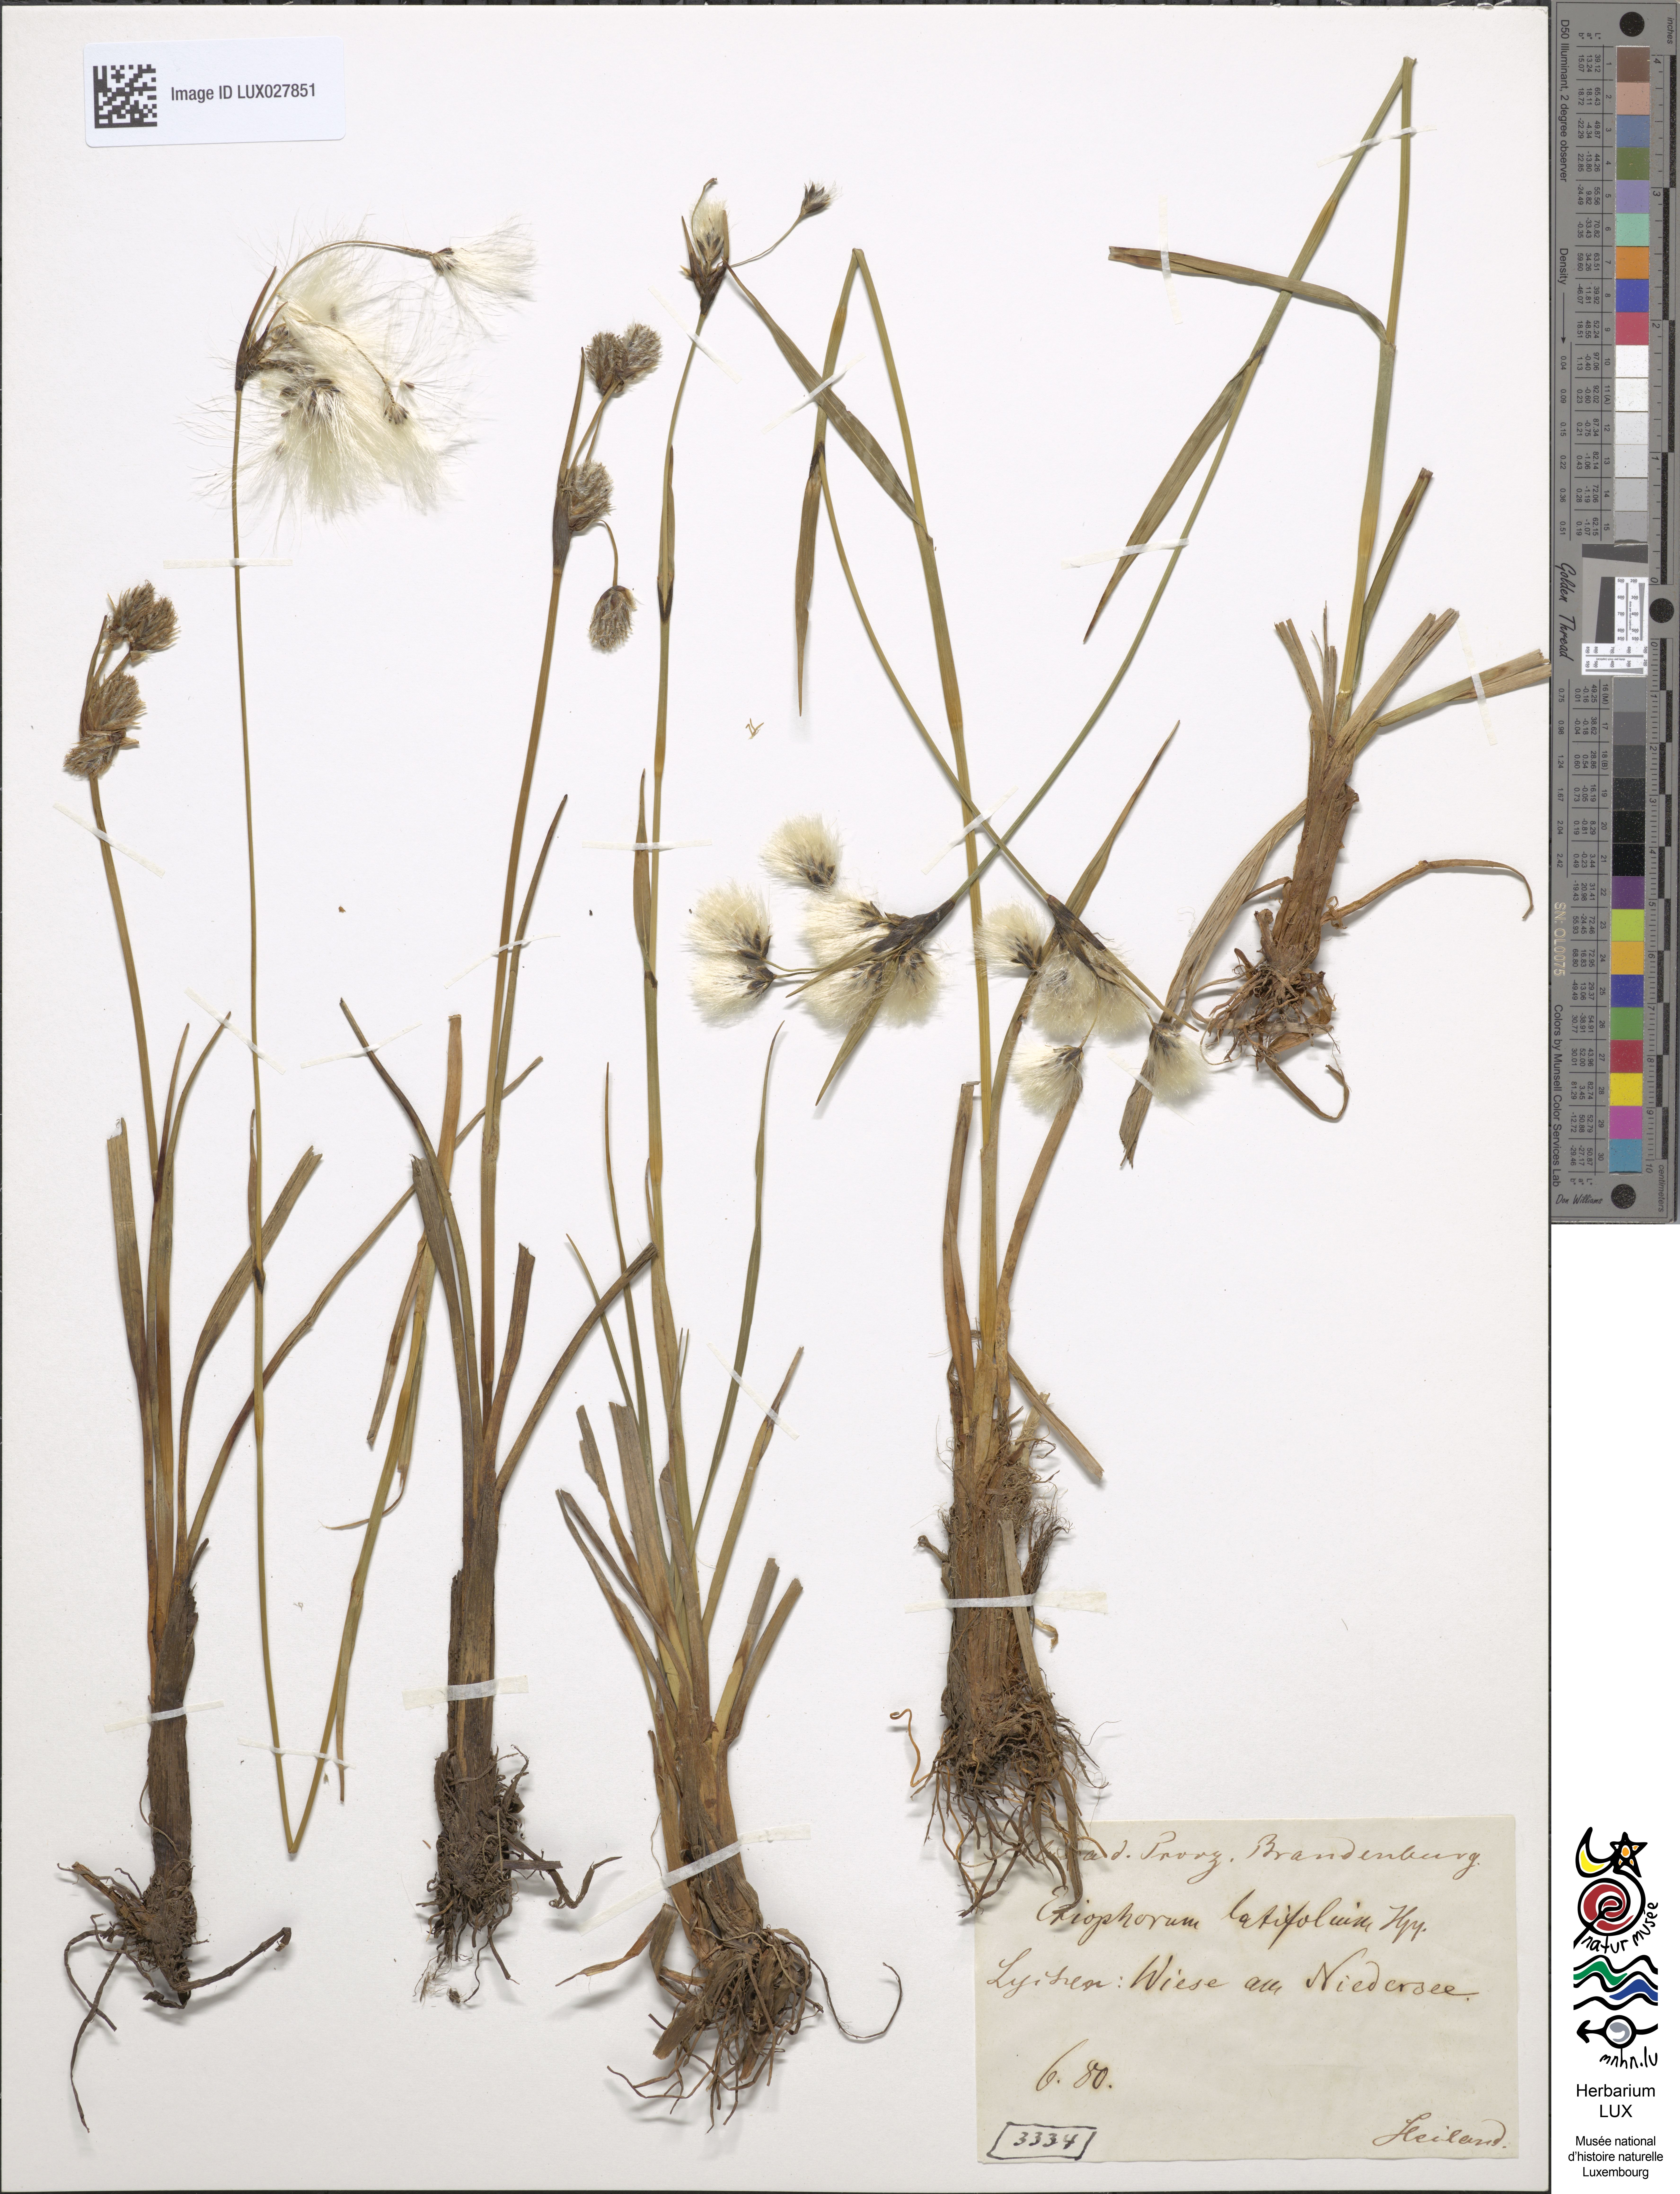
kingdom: Plantae
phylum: Tracheophyta
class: Liliopsida
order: Poales
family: Cyperaceae
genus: Eriophorum
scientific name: Eriophorum latifolium
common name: Broad-leaved cottongrass
